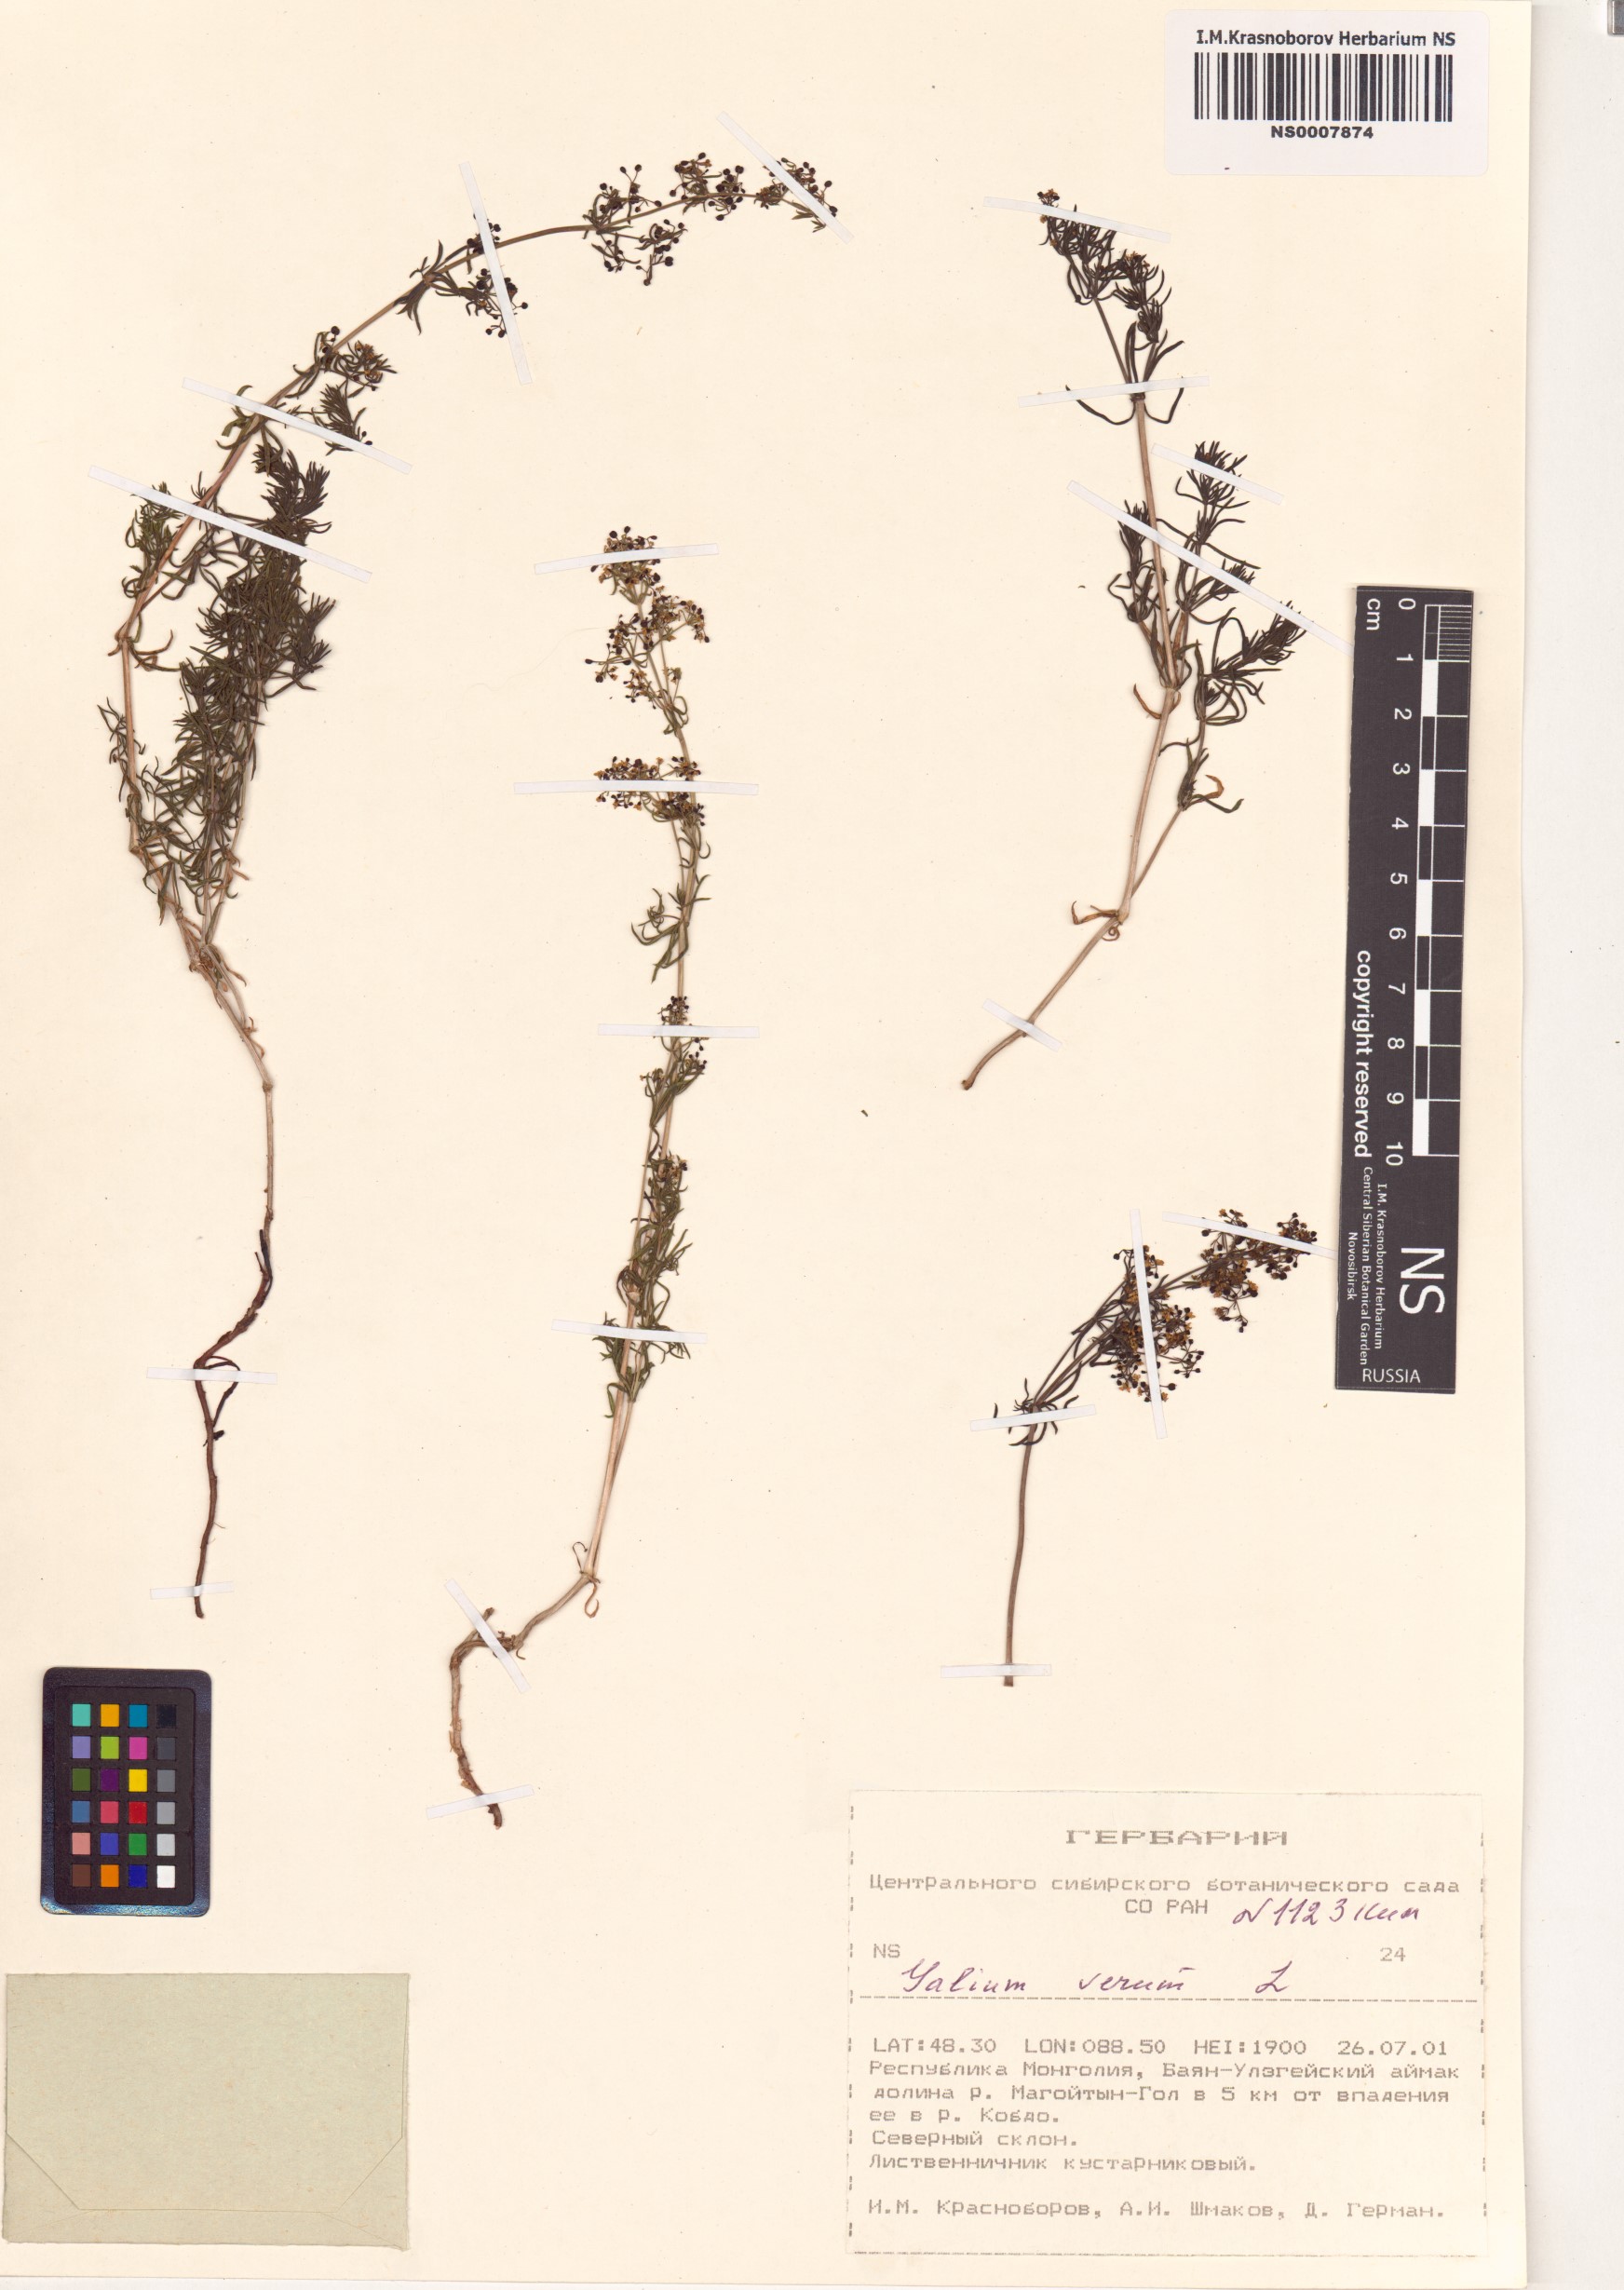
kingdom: Plantae
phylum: Tracheophyta
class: Magnoliopsida
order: Gentianales
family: Rubiaceae
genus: Galium
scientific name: Galium verum
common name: Lady's bedstraw
